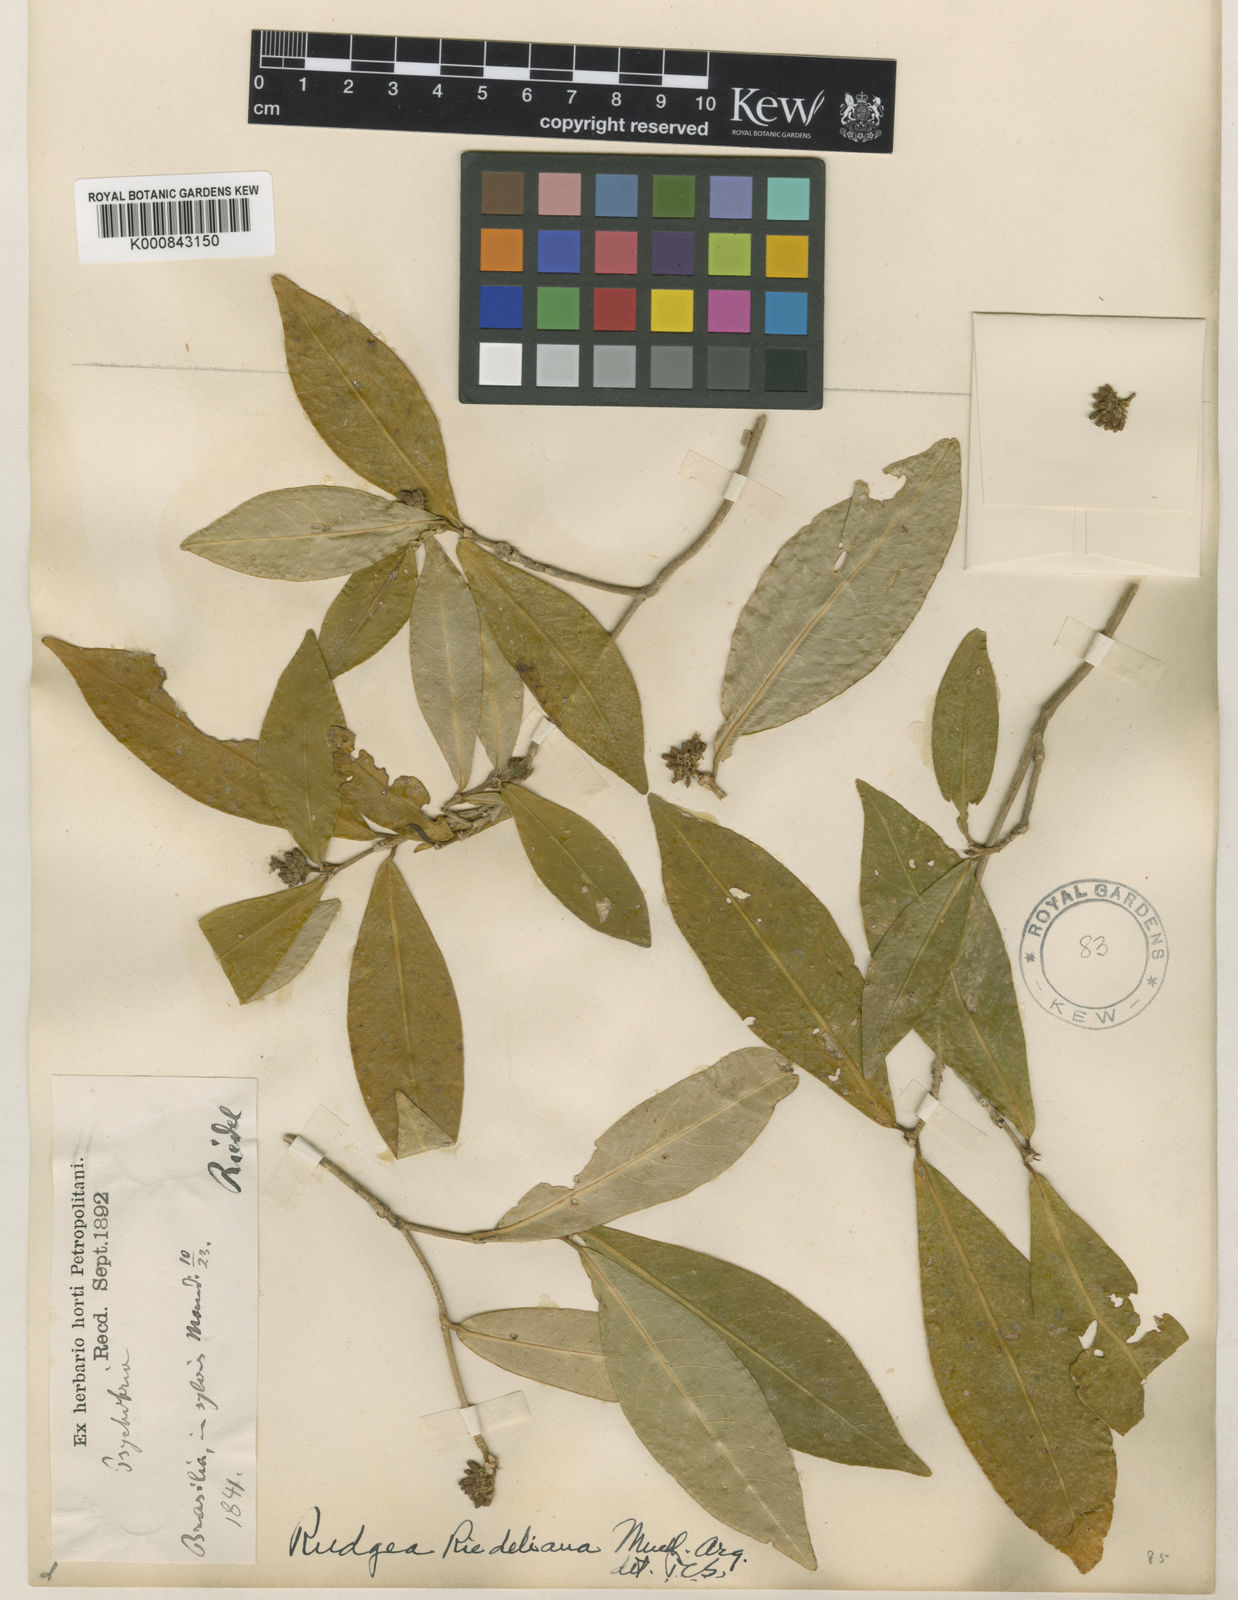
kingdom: Plantae
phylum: Tracheophyta
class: Magnoliopsida
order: Gentianales
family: Rubiaceae
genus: Rudgea
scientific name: Rudgea
